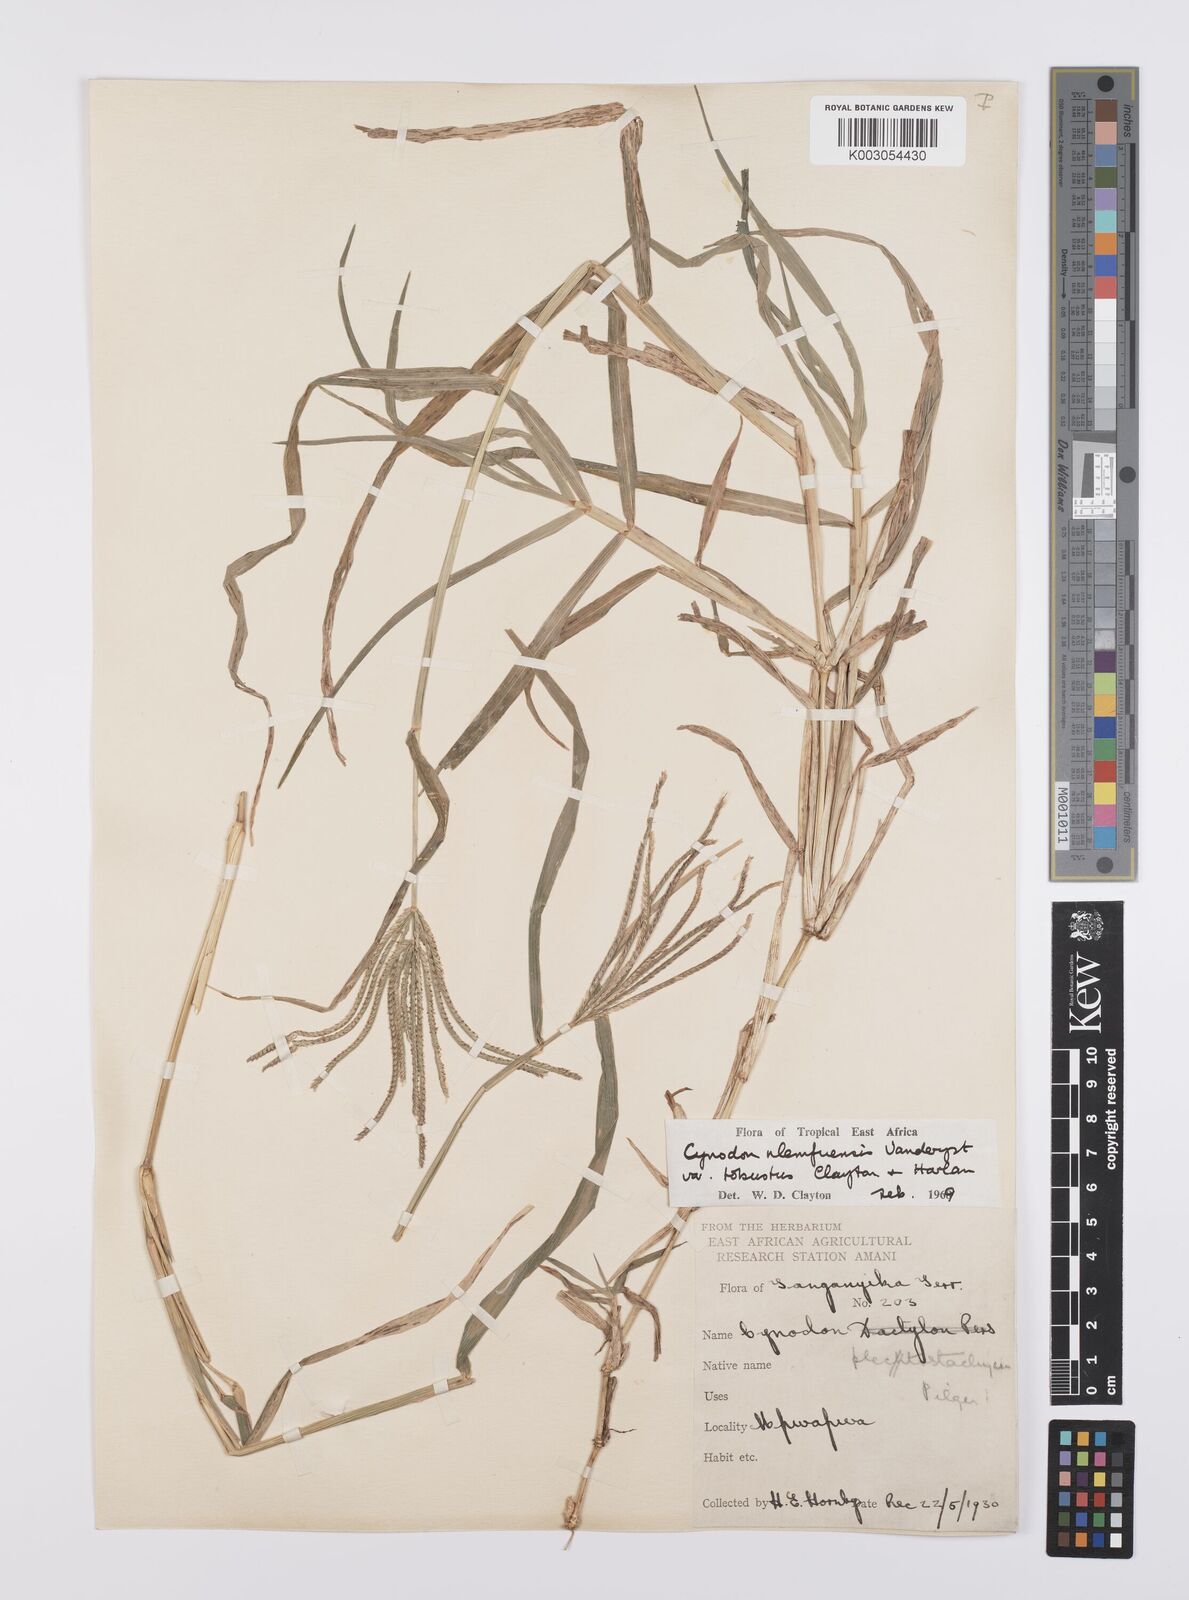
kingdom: Plantae
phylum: Tracheophyta
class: Liliopsida
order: Poales
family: Poaceae
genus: Cynodon
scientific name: Cynodon nlemfuensis
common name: African bermudagrass
